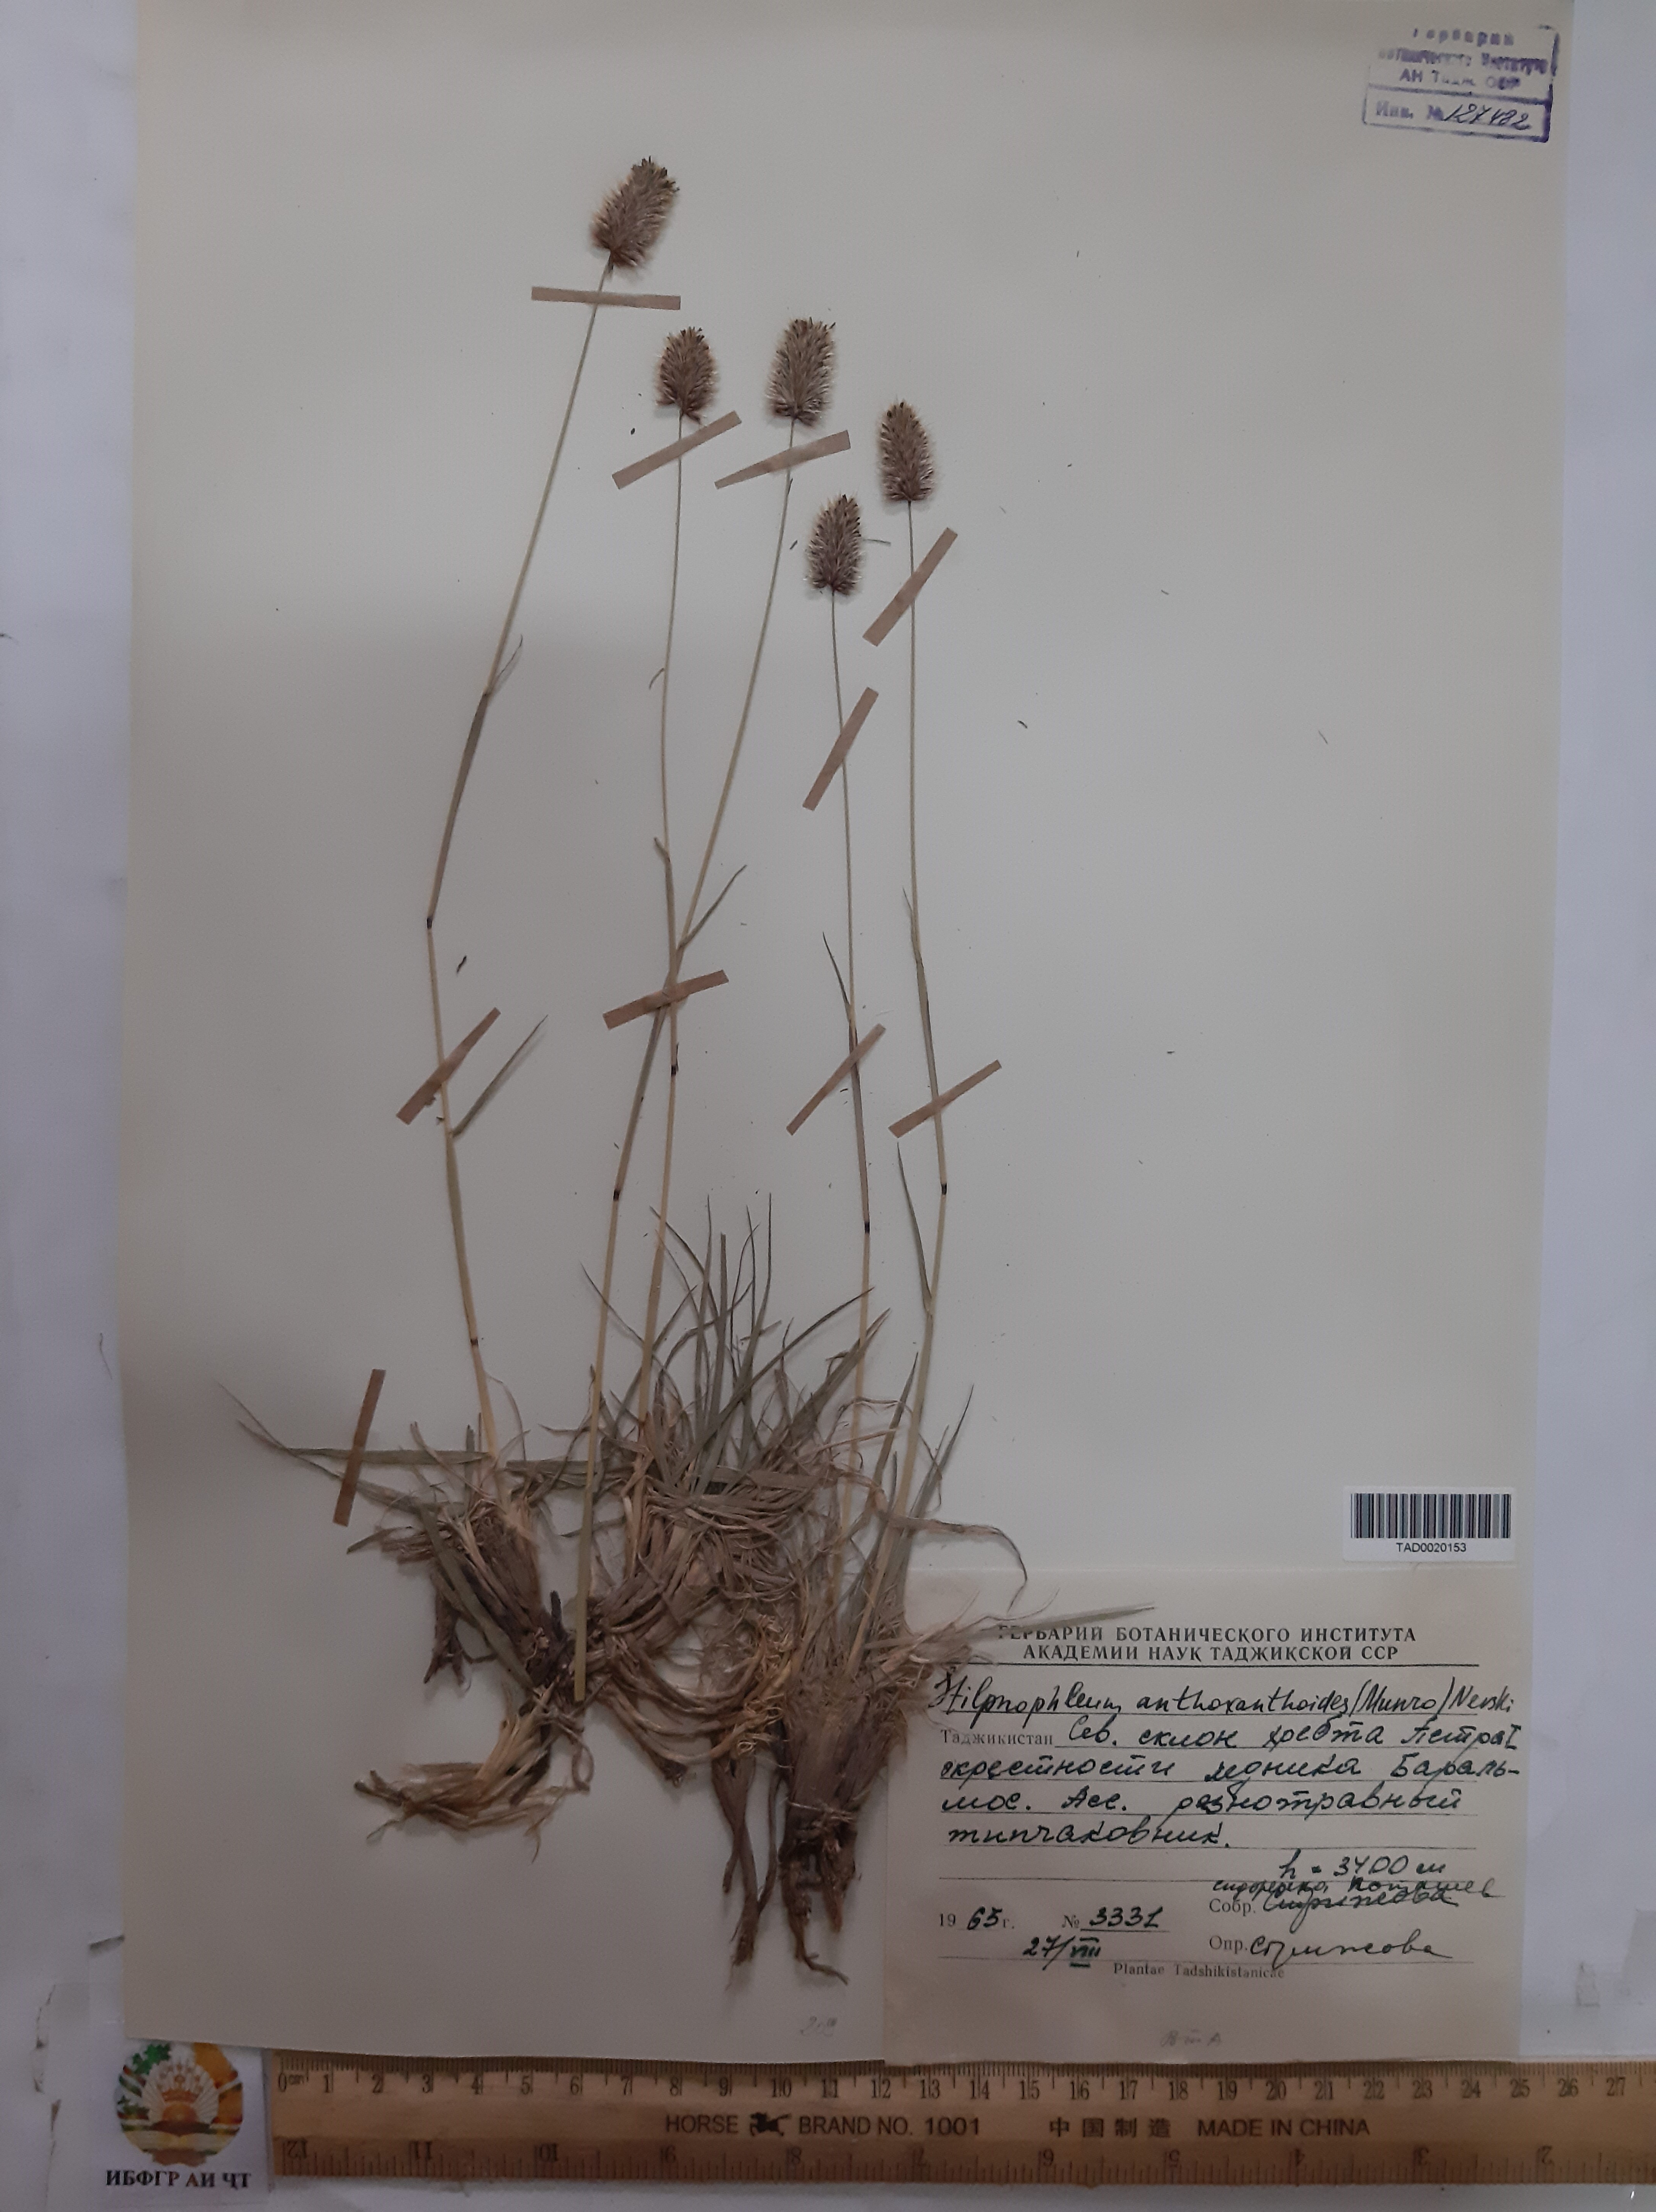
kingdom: Plantae
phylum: Tracheophyta
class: Liliopsida
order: Poales
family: Poaceae
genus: Calamagrostis
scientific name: Calamagrostis anthoxanthoides
